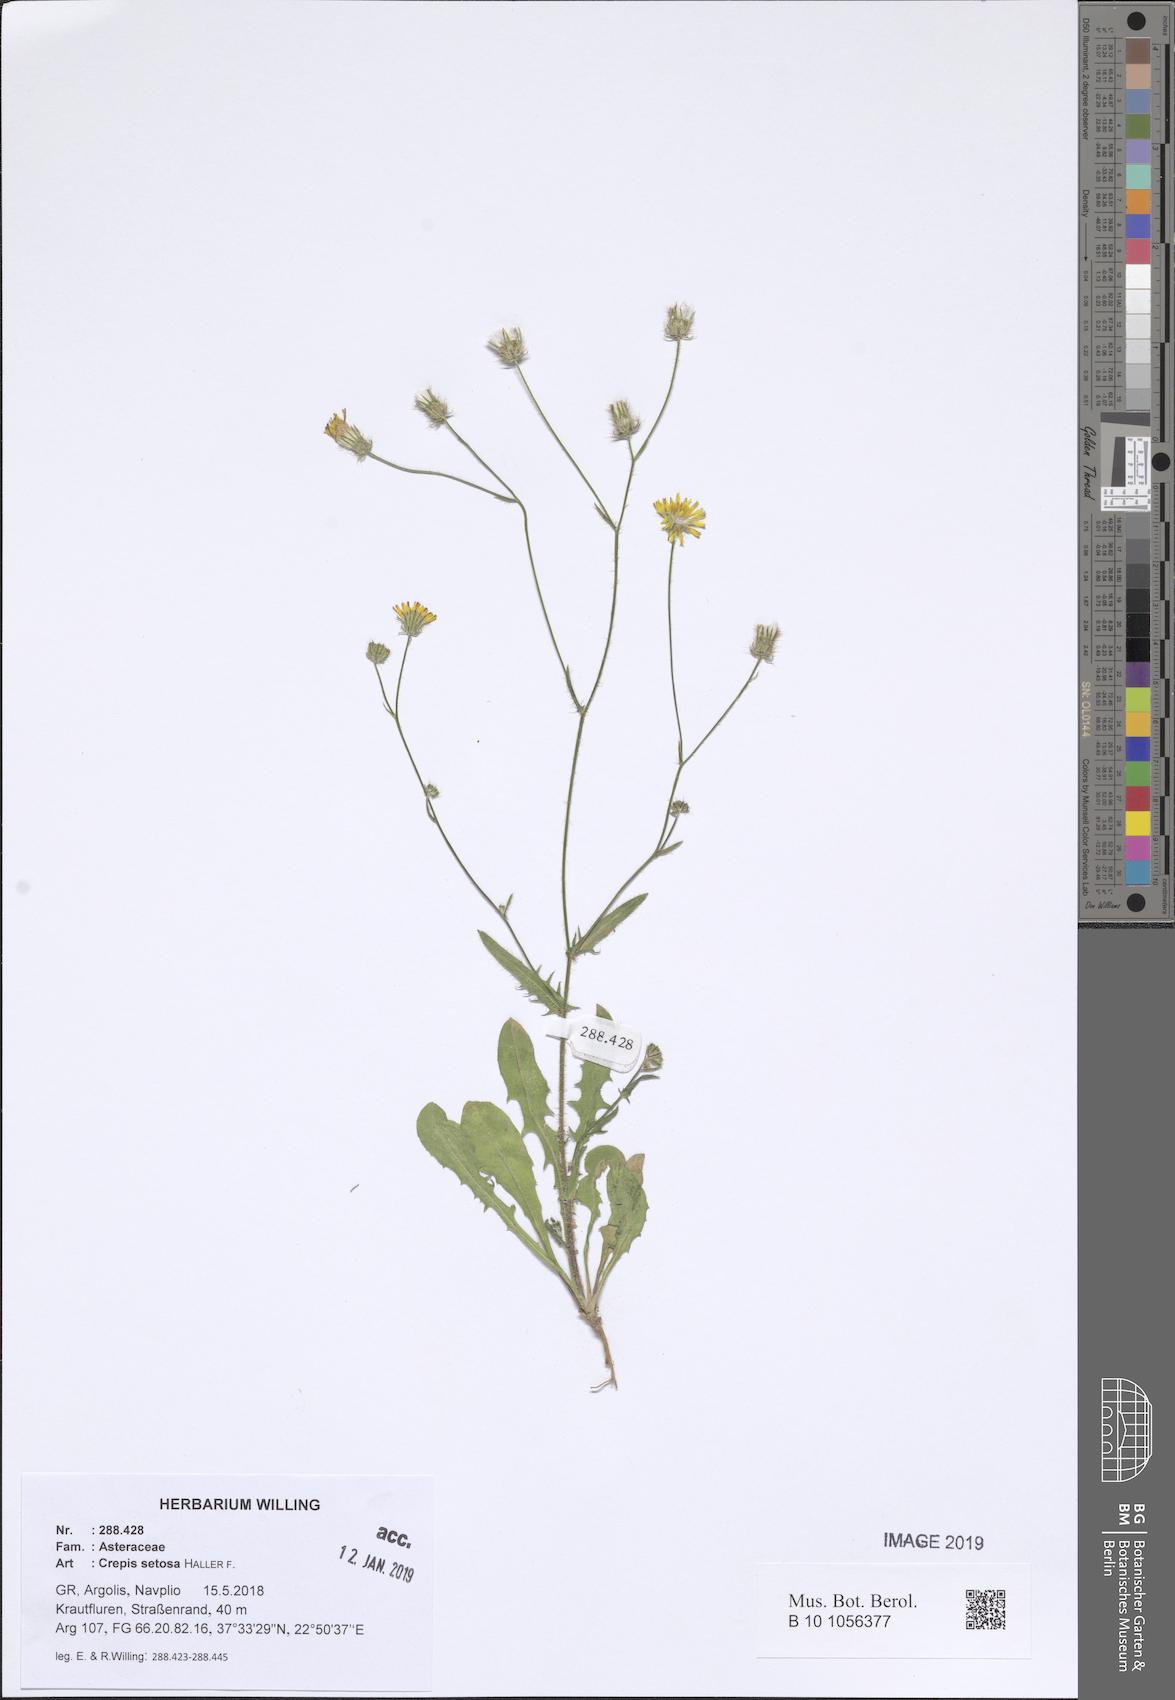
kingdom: Plantae
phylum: Tracheophyta
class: Magnoliopsida
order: Asterales
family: Asteraceae
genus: Crepis
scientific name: Crepis setosa
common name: Bristly hawk's-beard
